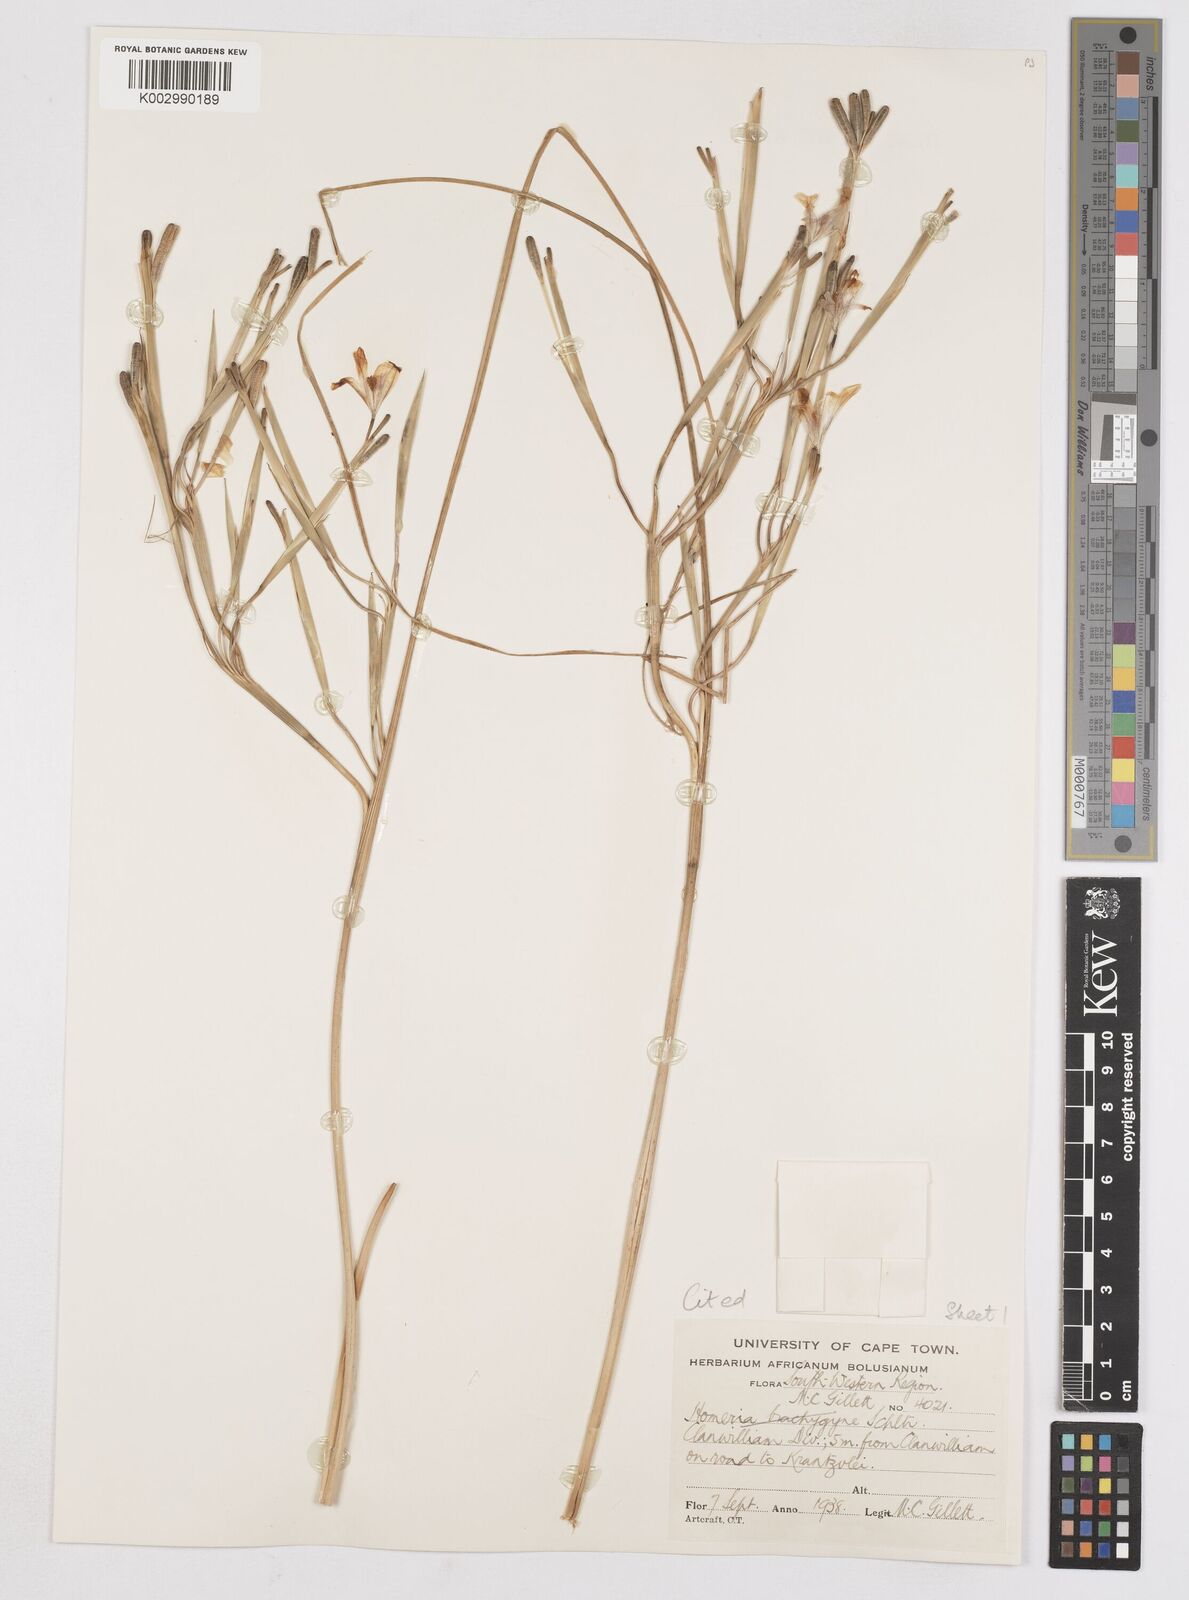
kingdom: Plantae
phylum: Tracheophyta
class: Liliopsida
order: Asparagales
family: Iridaceae
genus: Moraea
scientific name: Moraea patens
